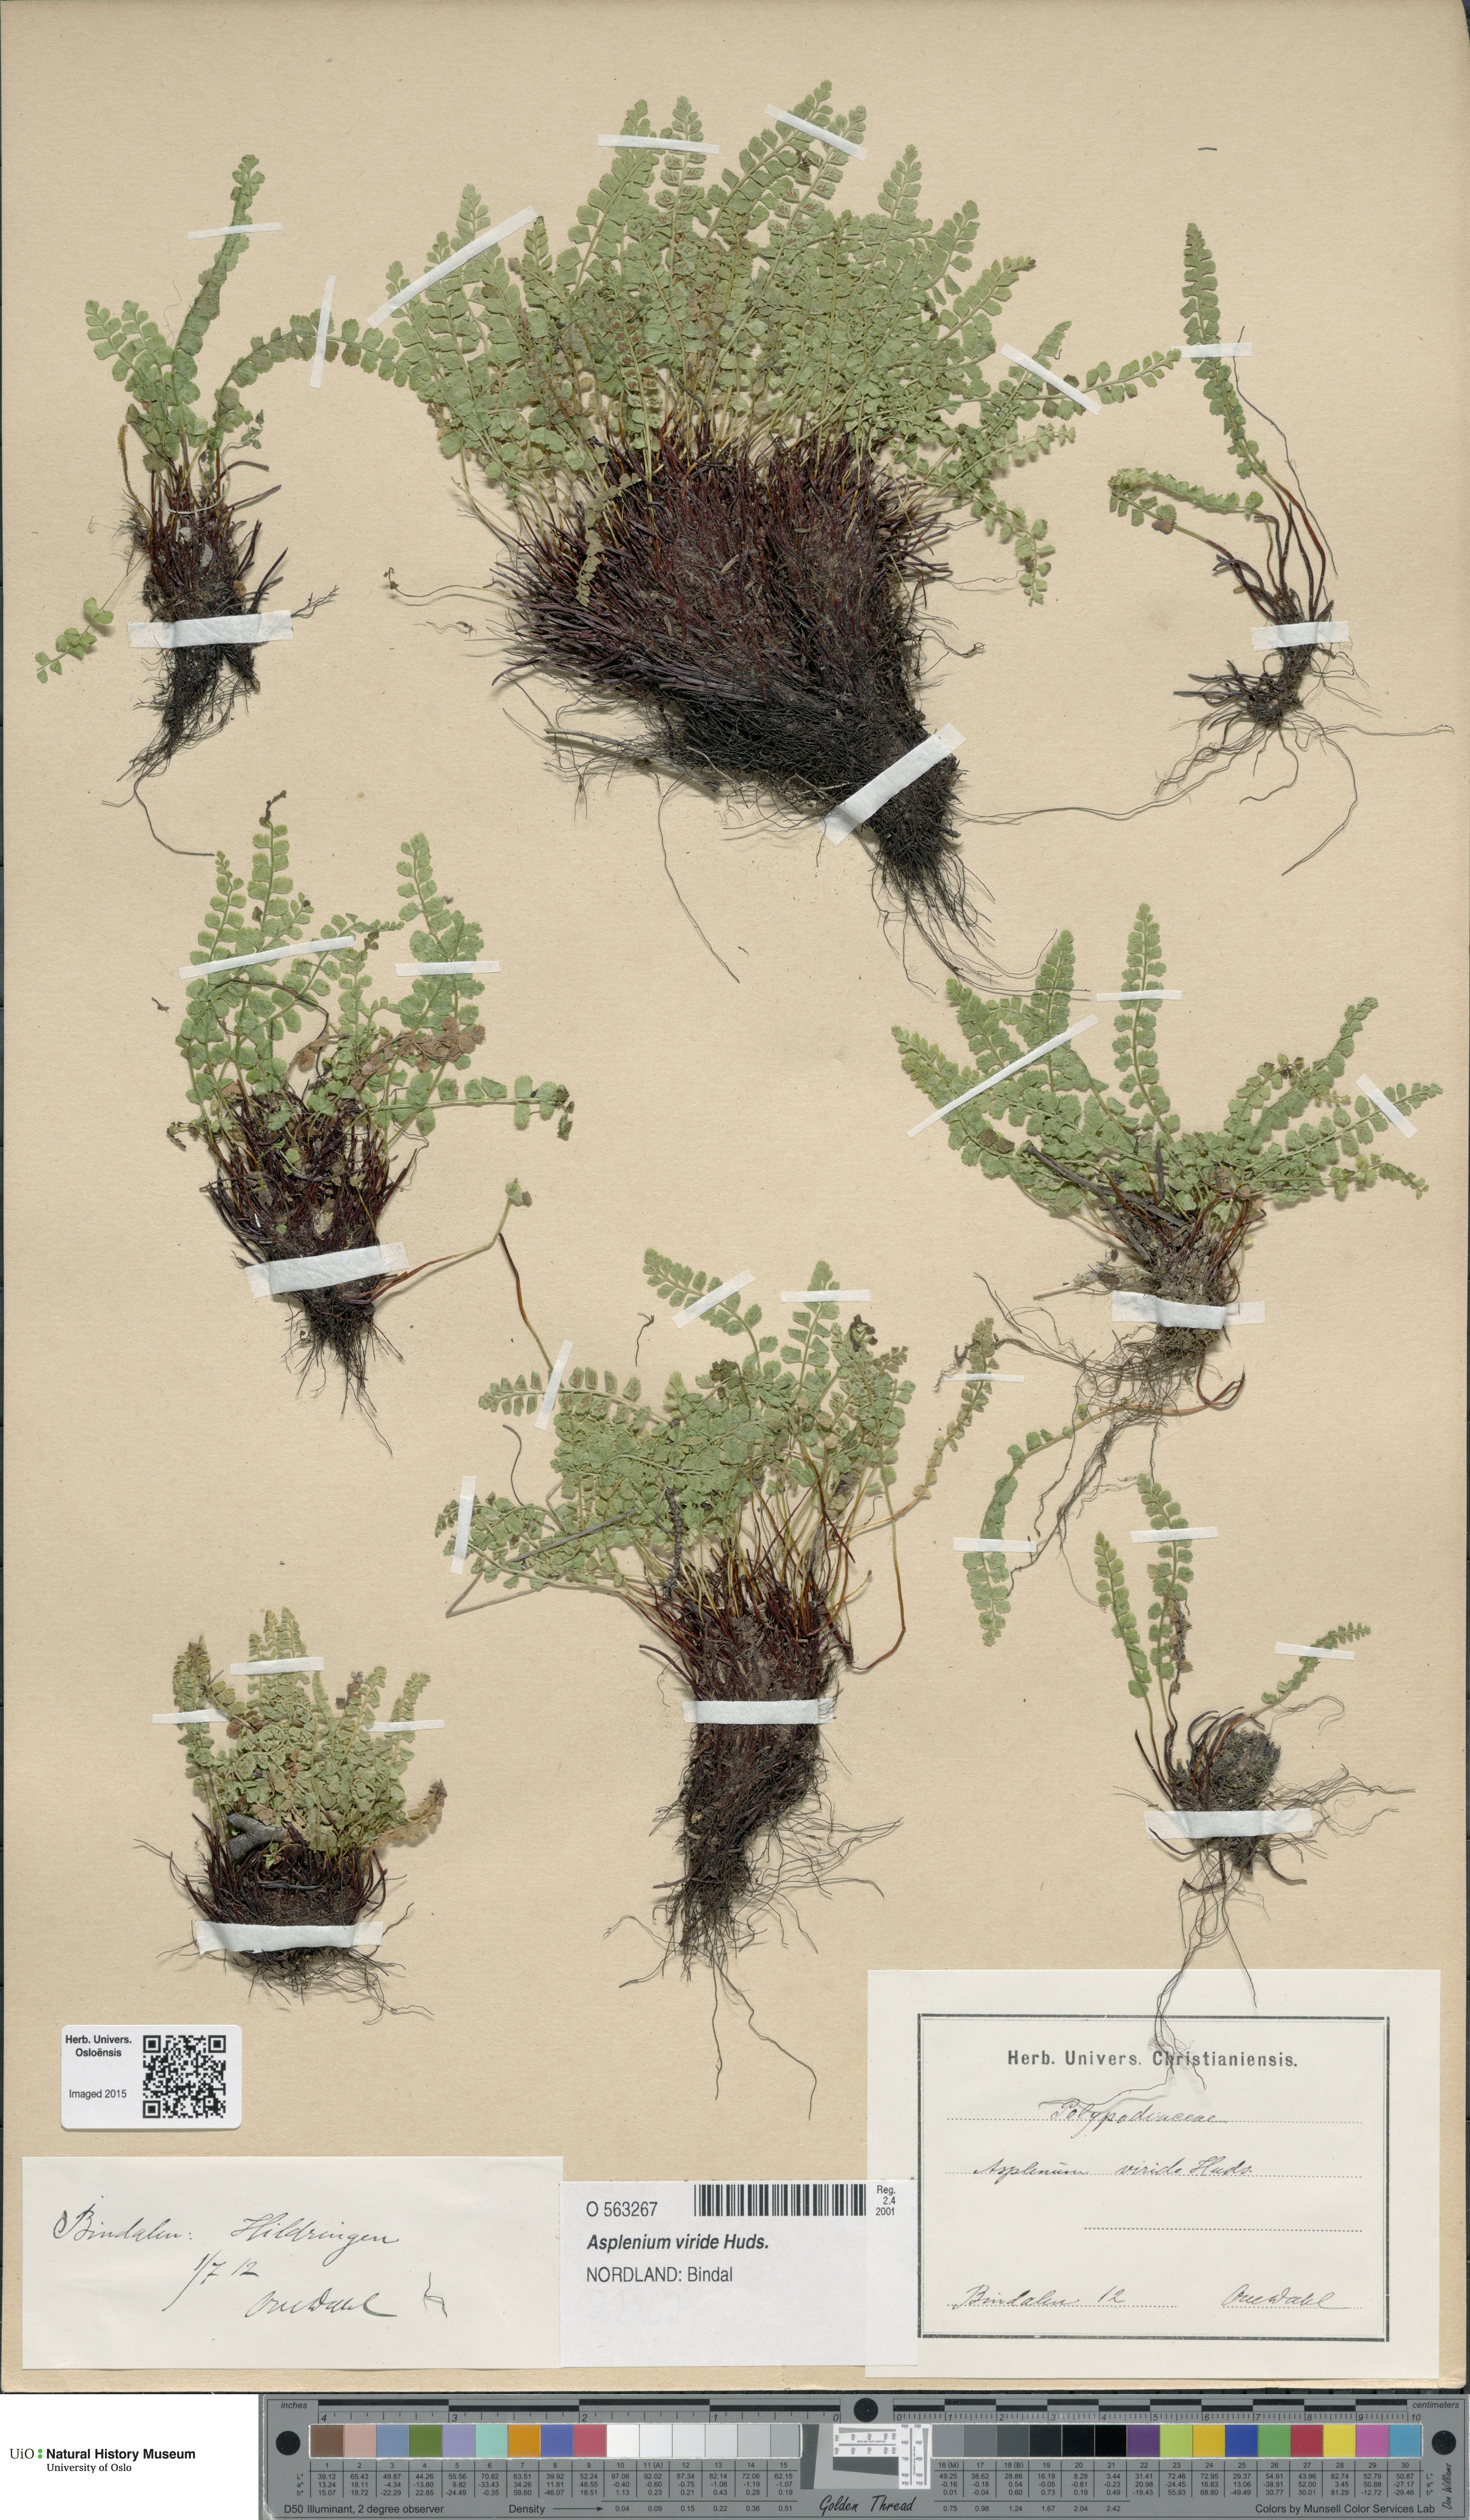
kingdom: Plantae
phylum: Tracheophyta
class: Polypodiopsida
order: Polypodiales
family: Aspleniaceae
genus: Asplenium
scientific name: Asplenium viride
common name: Green spleenwort
